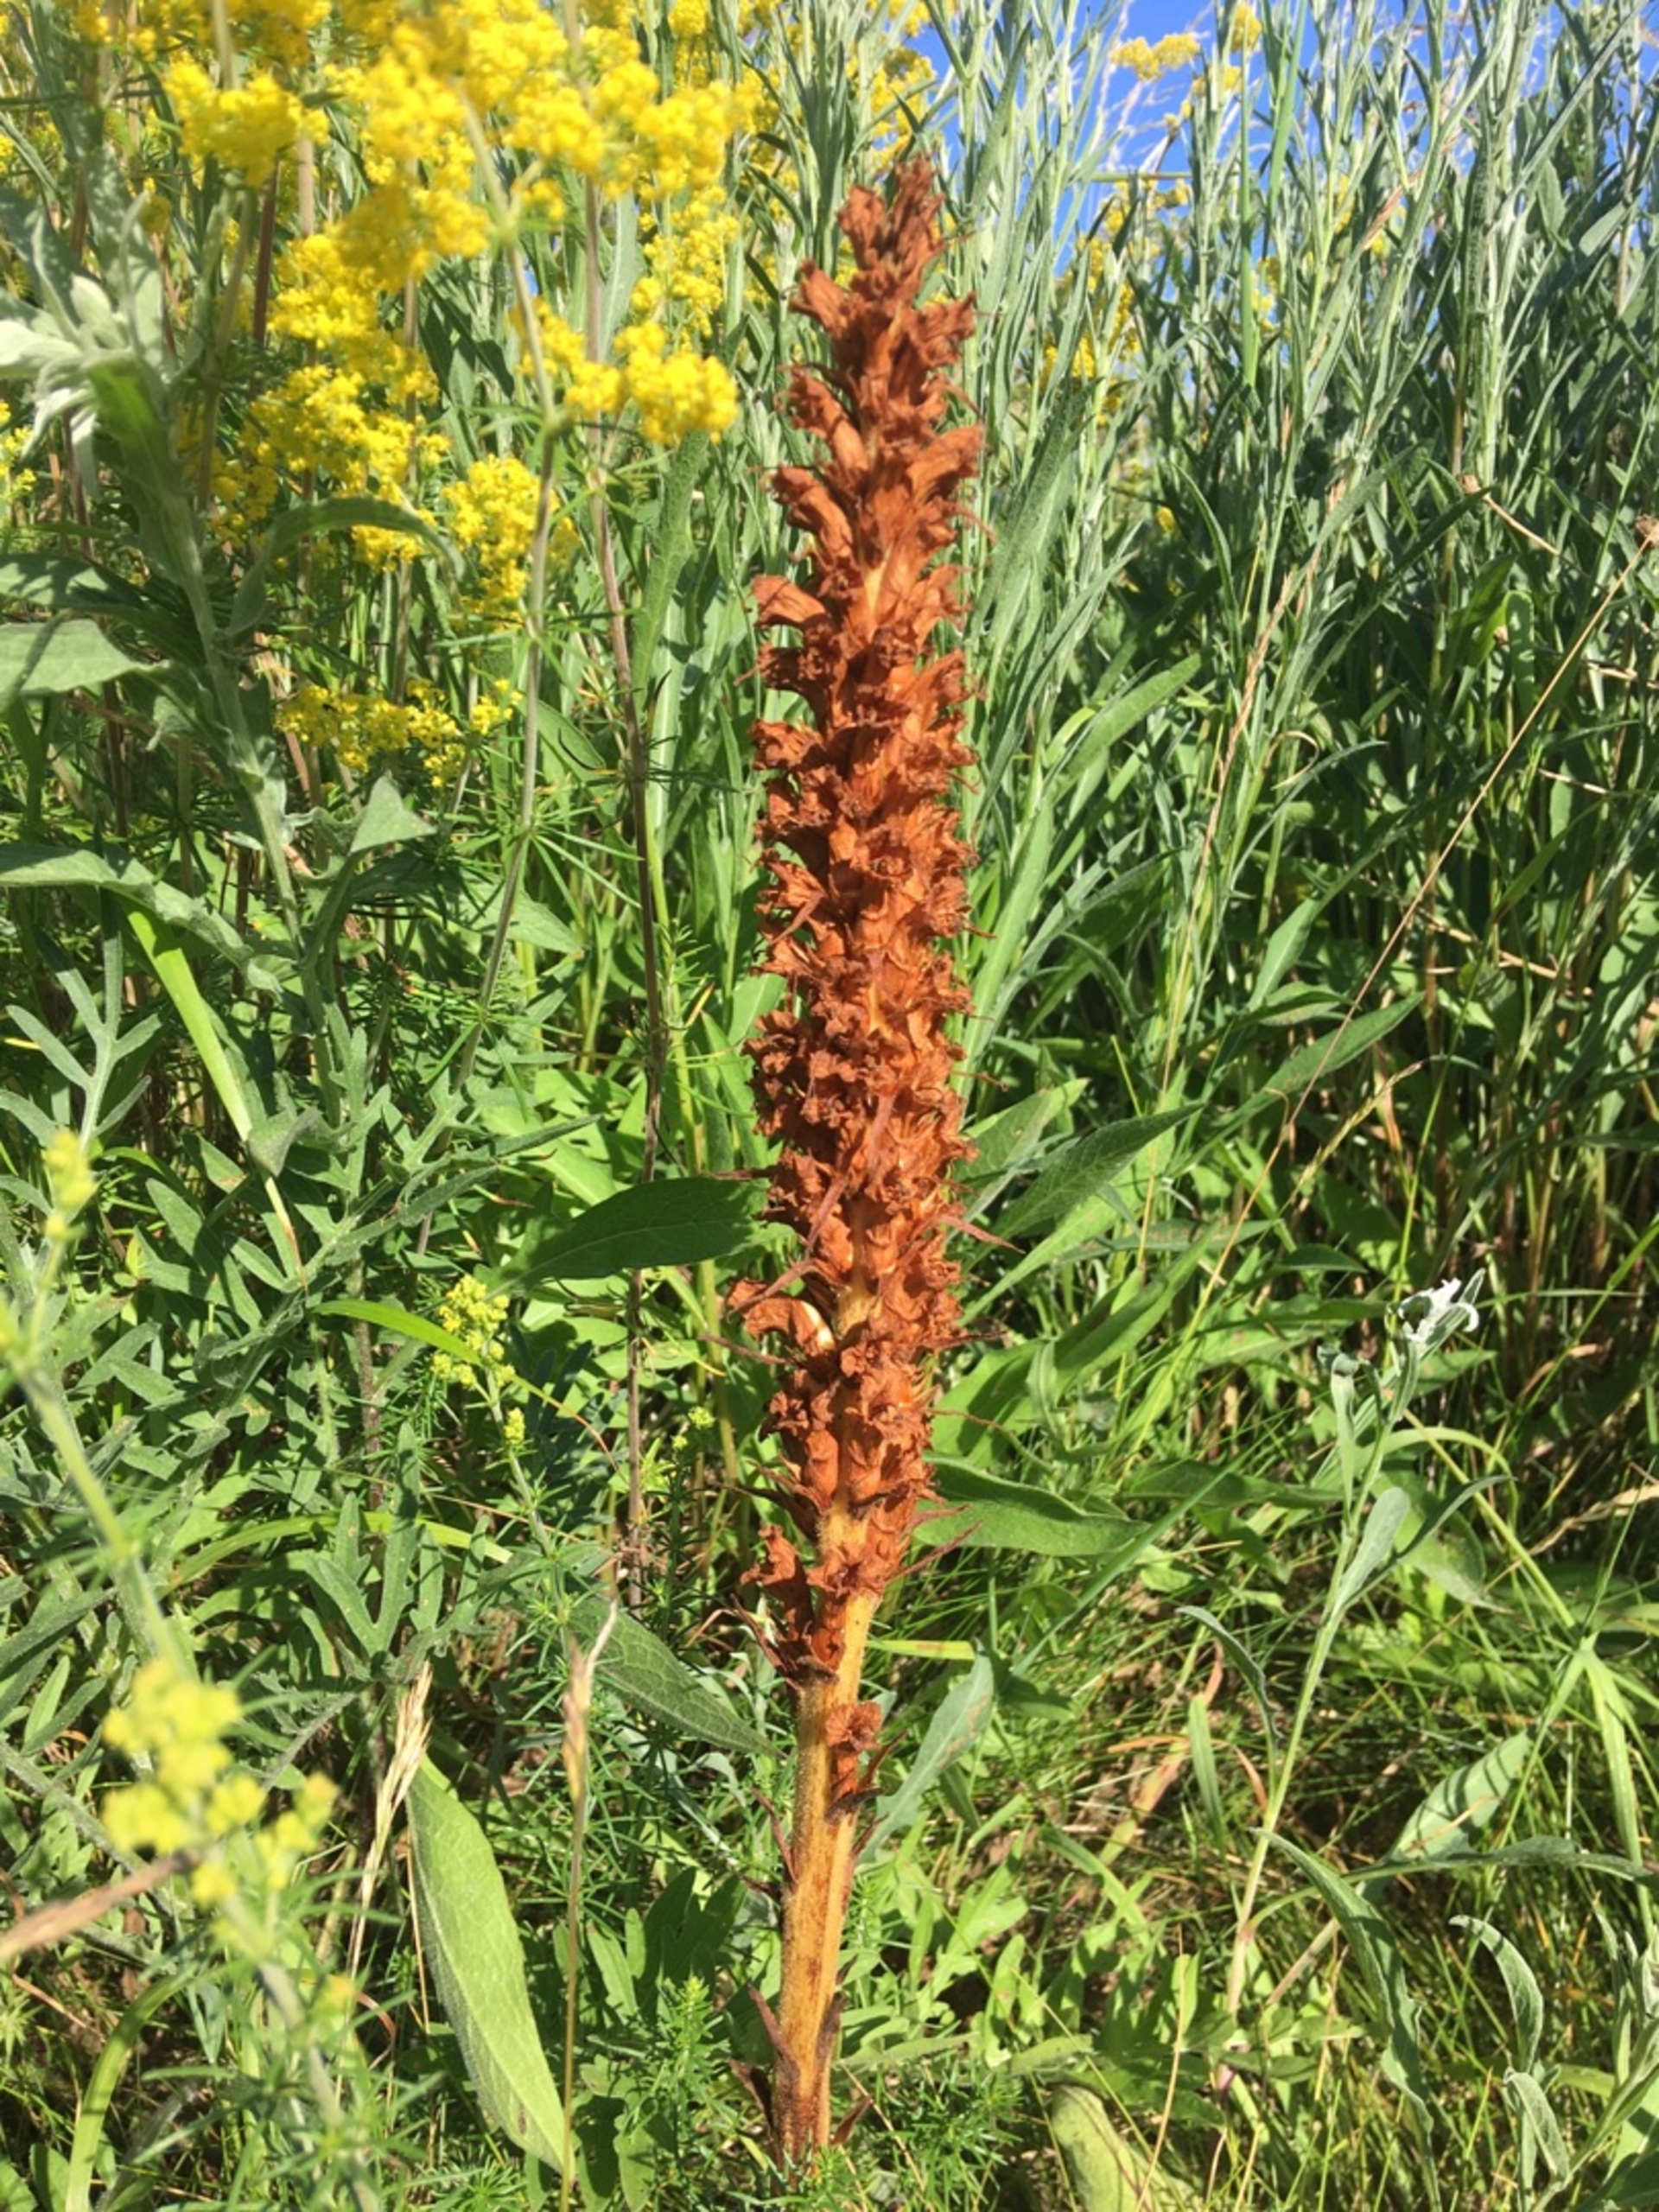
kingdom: Plantae
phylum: Tracheophyta
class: Magnoliopsida
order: Lamiales
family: Orobanchaceae
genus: Orobanche
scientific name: Orobanche elatior
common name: Stor gyvelkvæler
